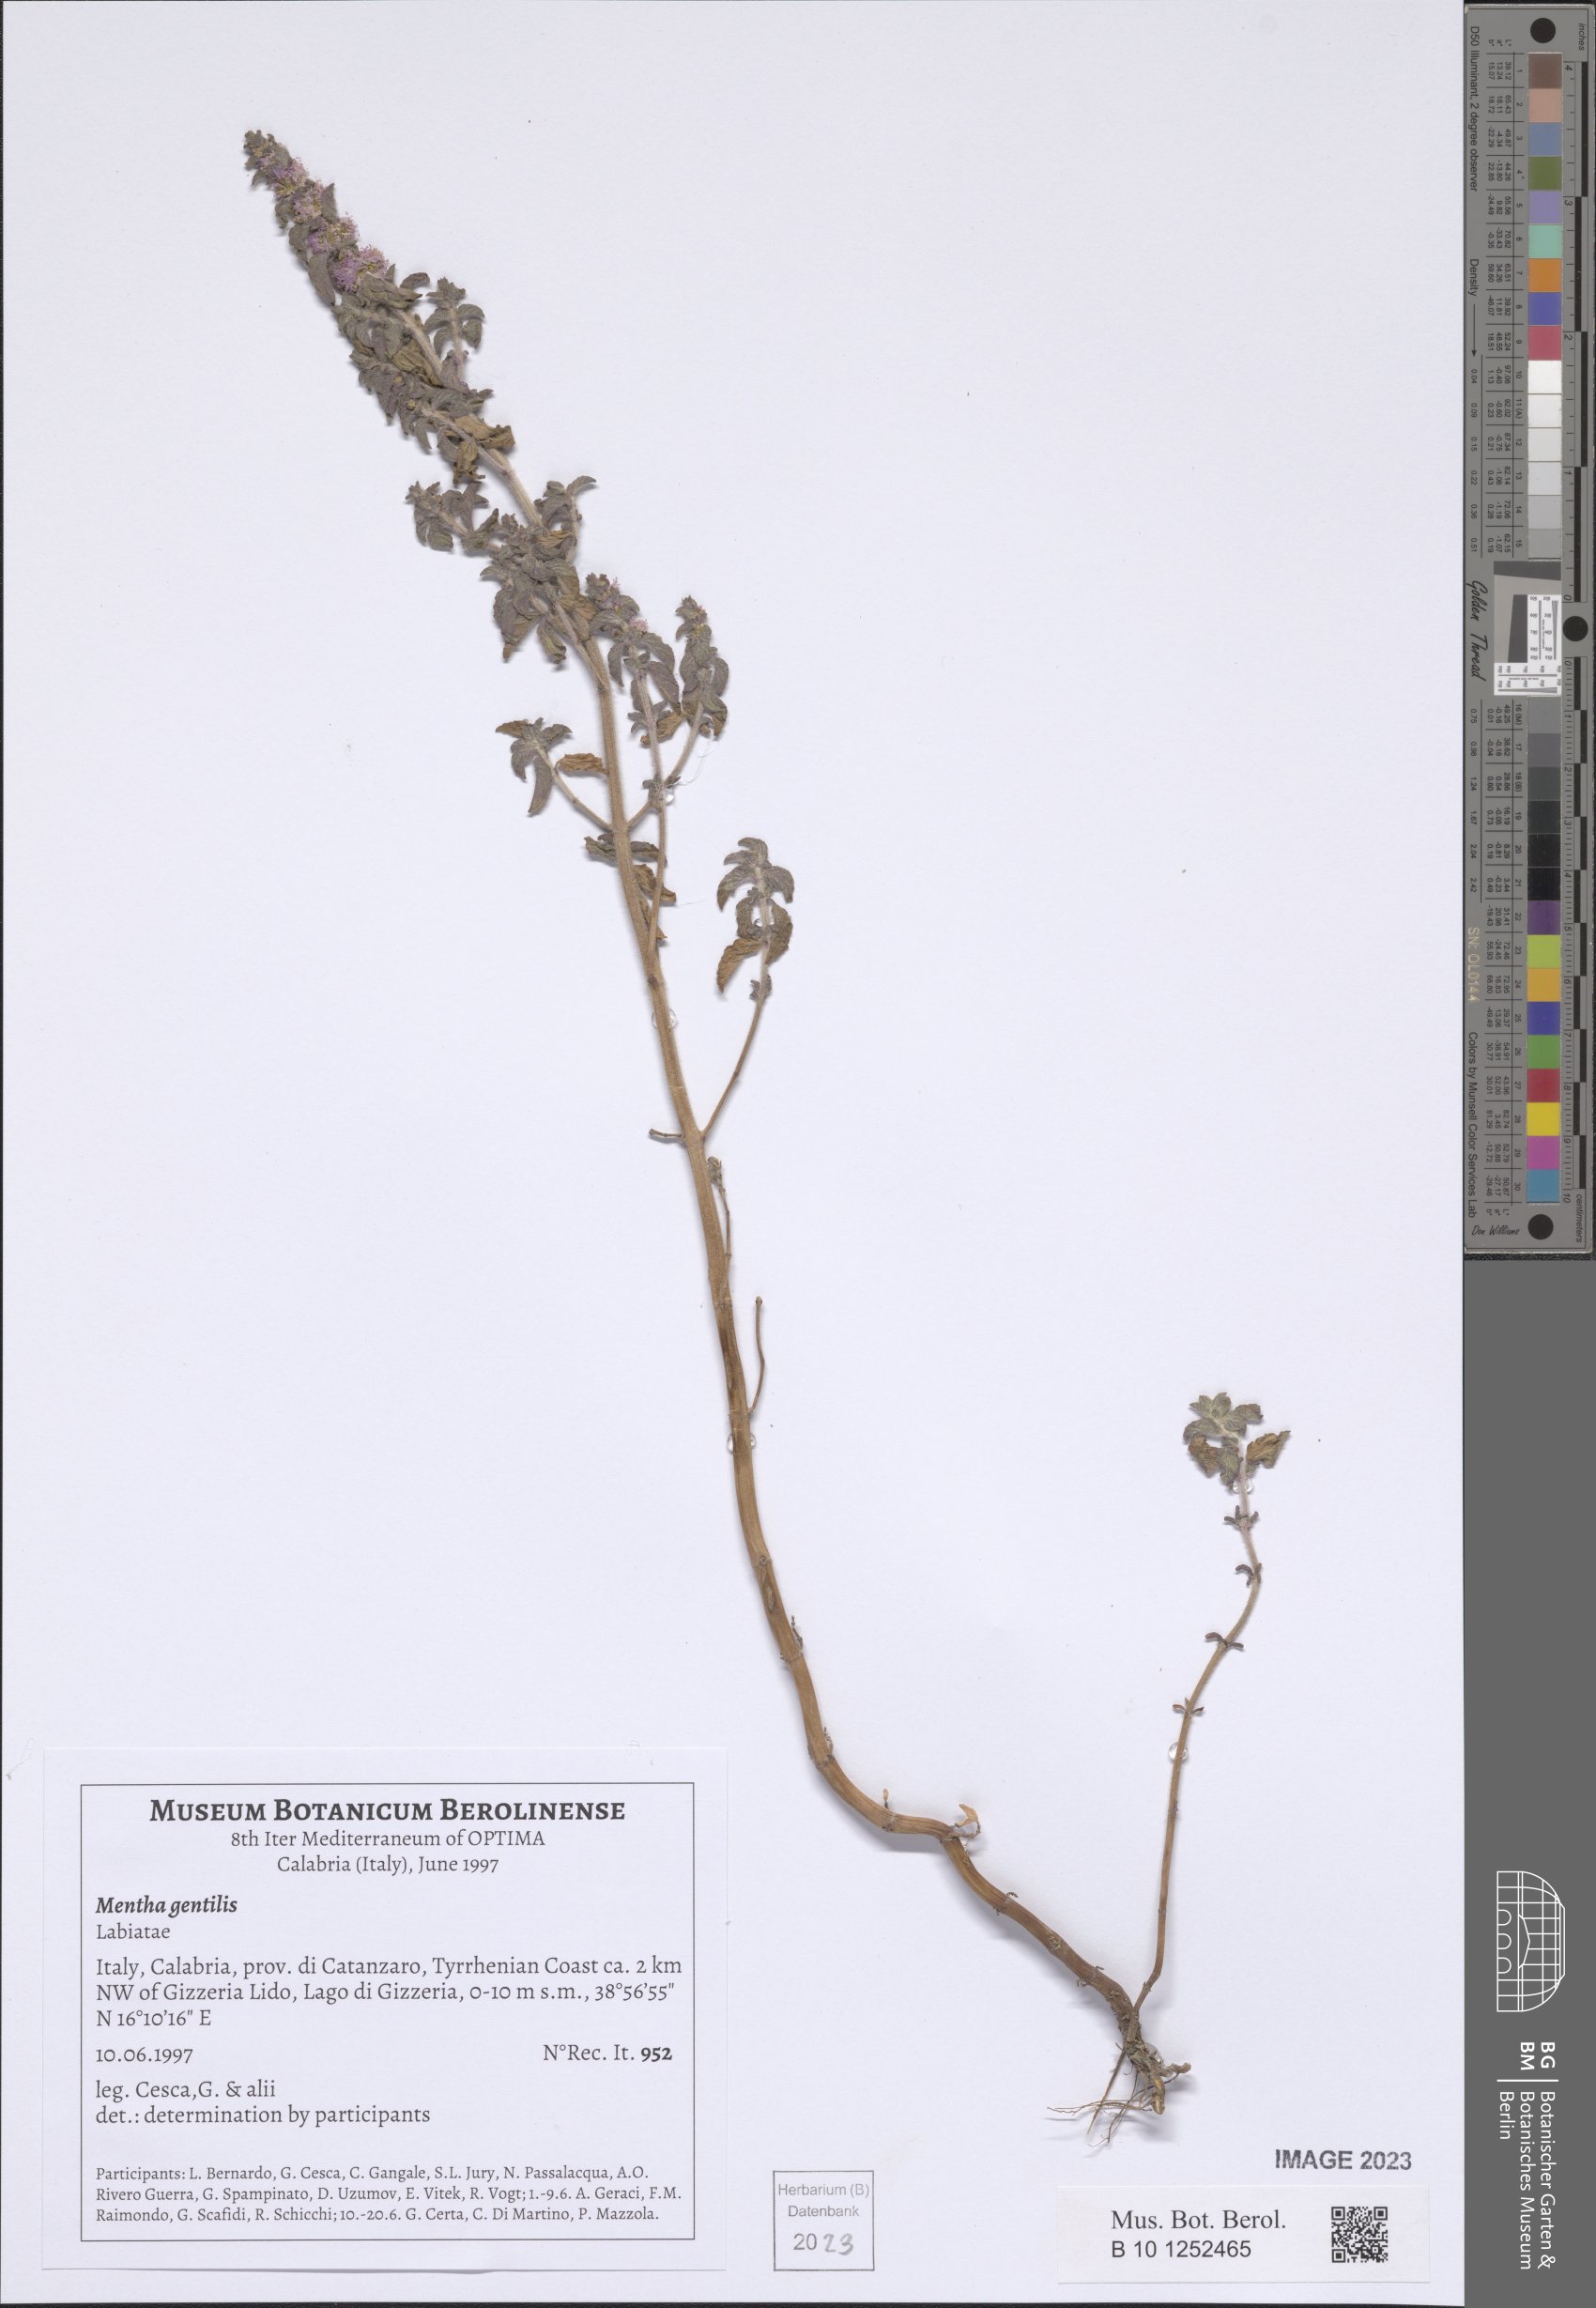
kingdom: Plantae
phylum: Tracheophyta
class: Magnoliopsida
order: Lamiales
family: Lamiaceae
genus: Mentha
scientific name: Mentha arvensis
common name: Corn mint
